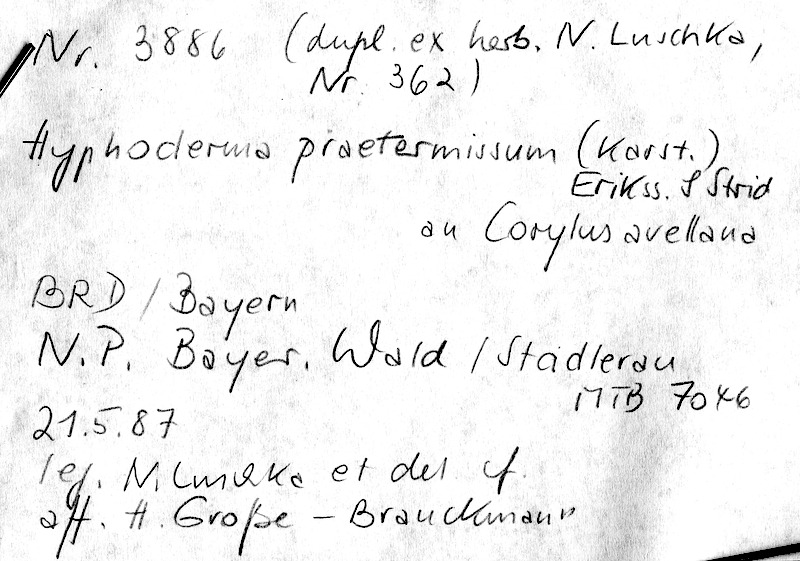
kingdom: Plantae
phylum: Tracheophyta
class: Magnoliopsida
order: Fagales
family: Betulaceae
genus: Corylus
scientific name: Corylus avellana
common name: European hazel
